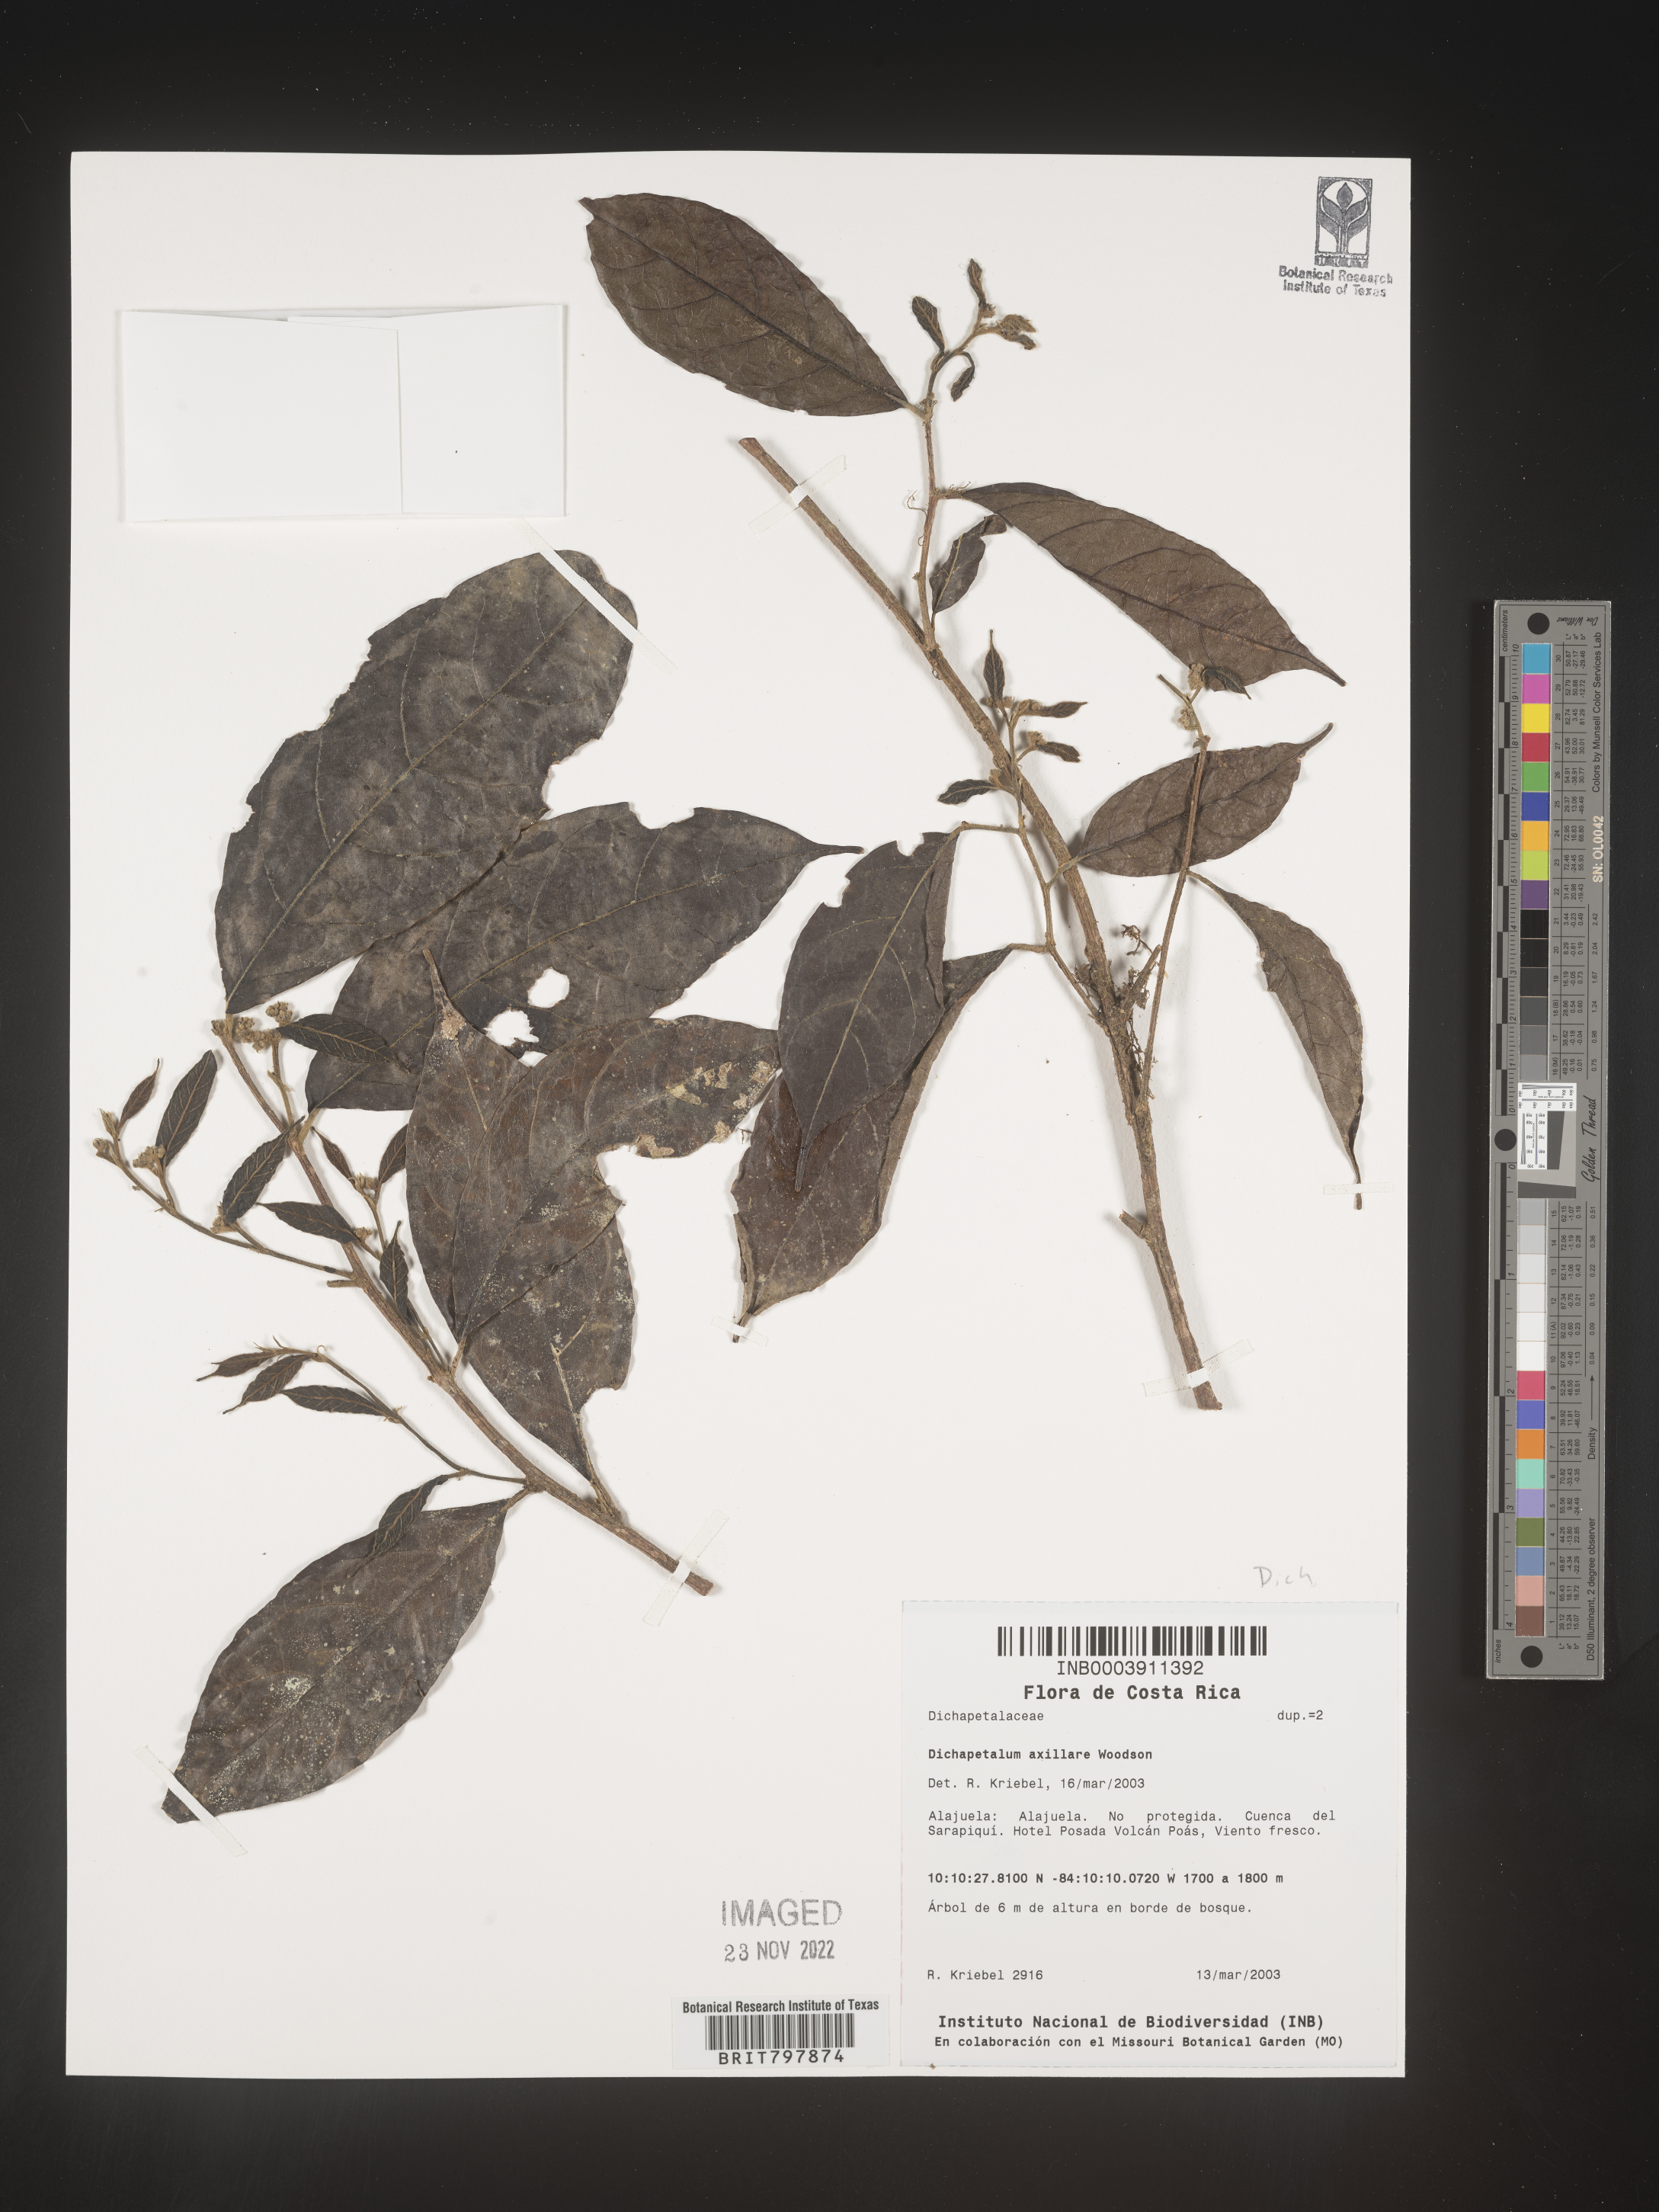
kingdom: Plantae
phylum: Tracheophyta
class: Magnoliopsida
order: Malpighiales
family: Dichapetalaceae
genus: Dichapetalum
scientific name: Dichapetalum
